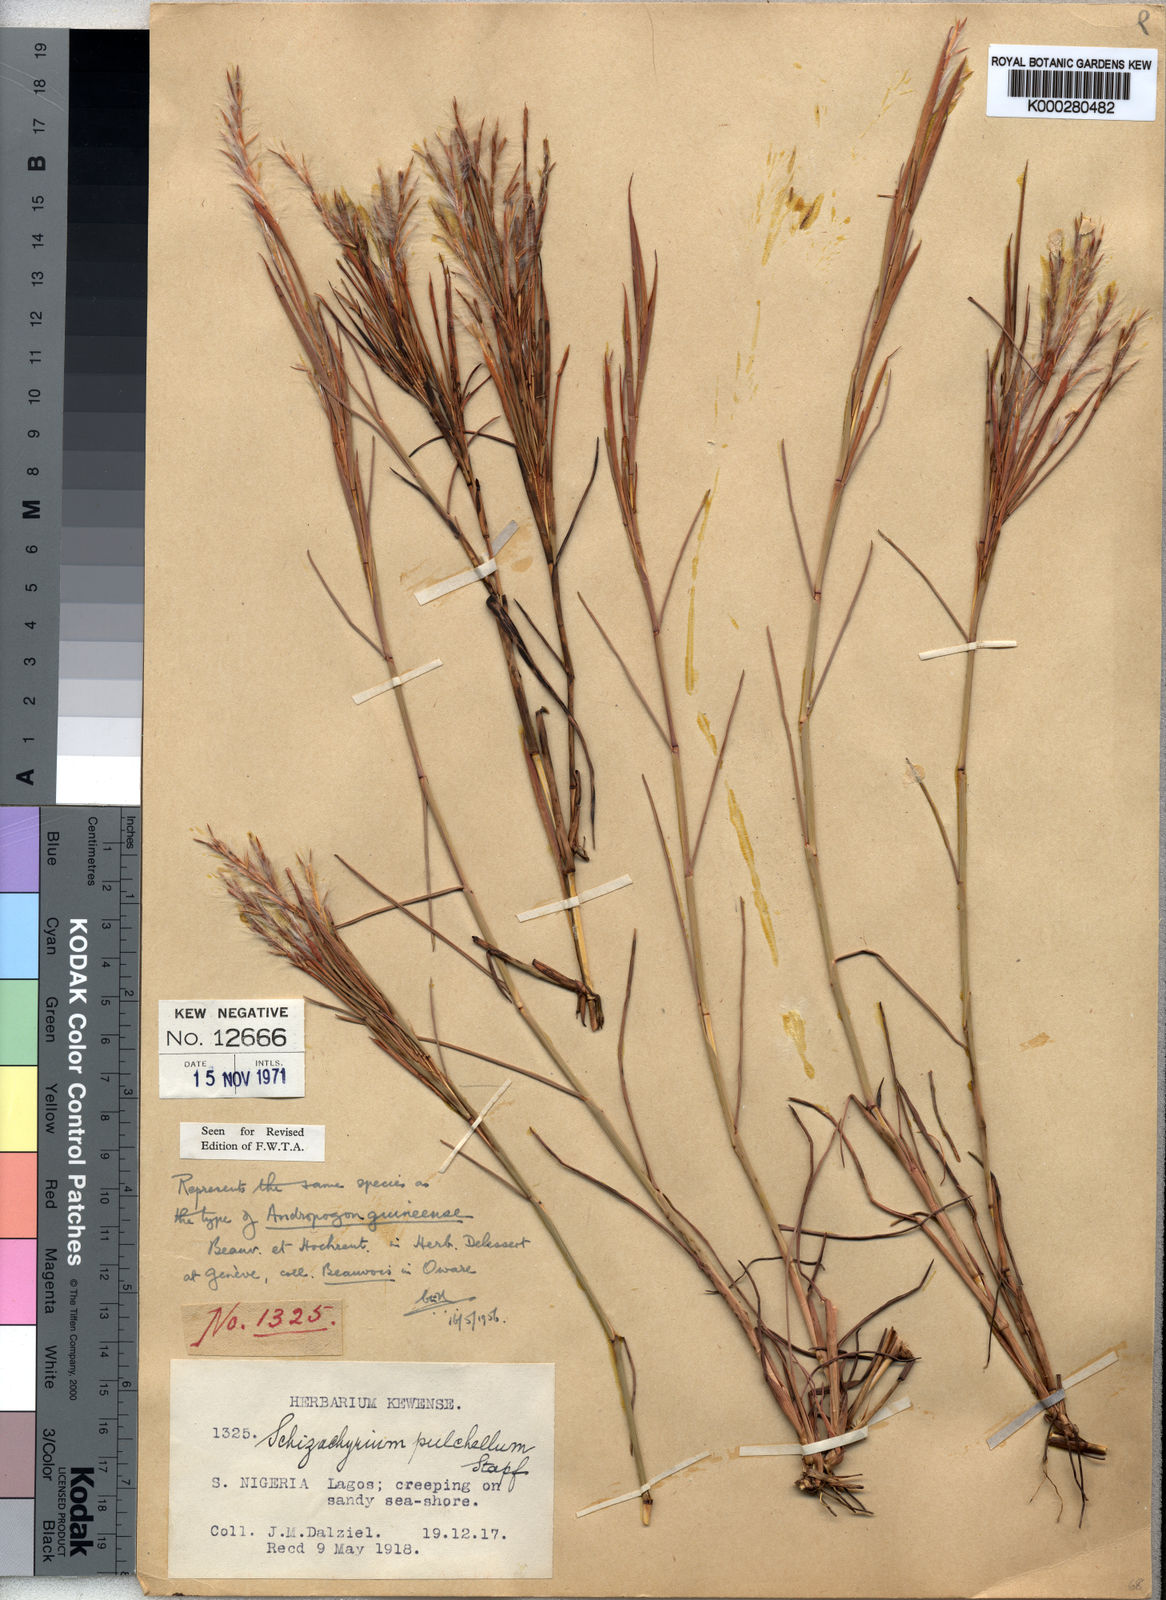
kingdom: Plantae
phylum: Tracheophyta
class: Liliopsida
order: Poales
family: Poaceae
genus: Schizachyrium
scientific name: Schizachyrium pulchellum
